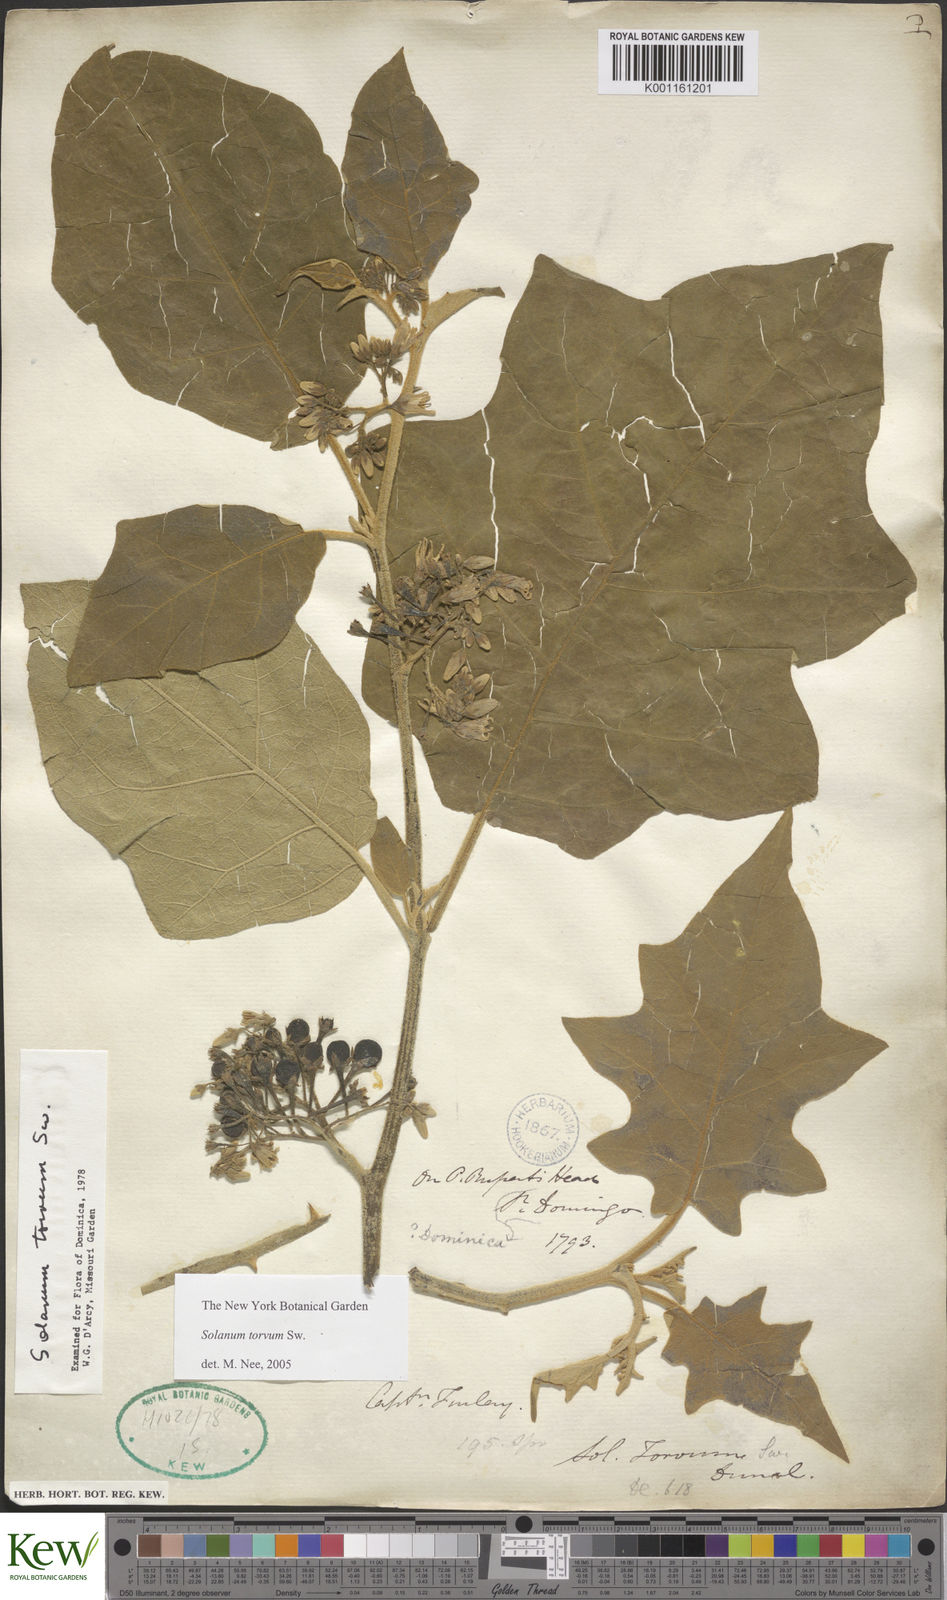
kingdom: Plantae
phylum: Tracheophyta
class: Magnoliopsida
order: Solanales
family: Solanaceae
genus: Solanum
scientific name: Solanum torvum
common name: Turkey berry
